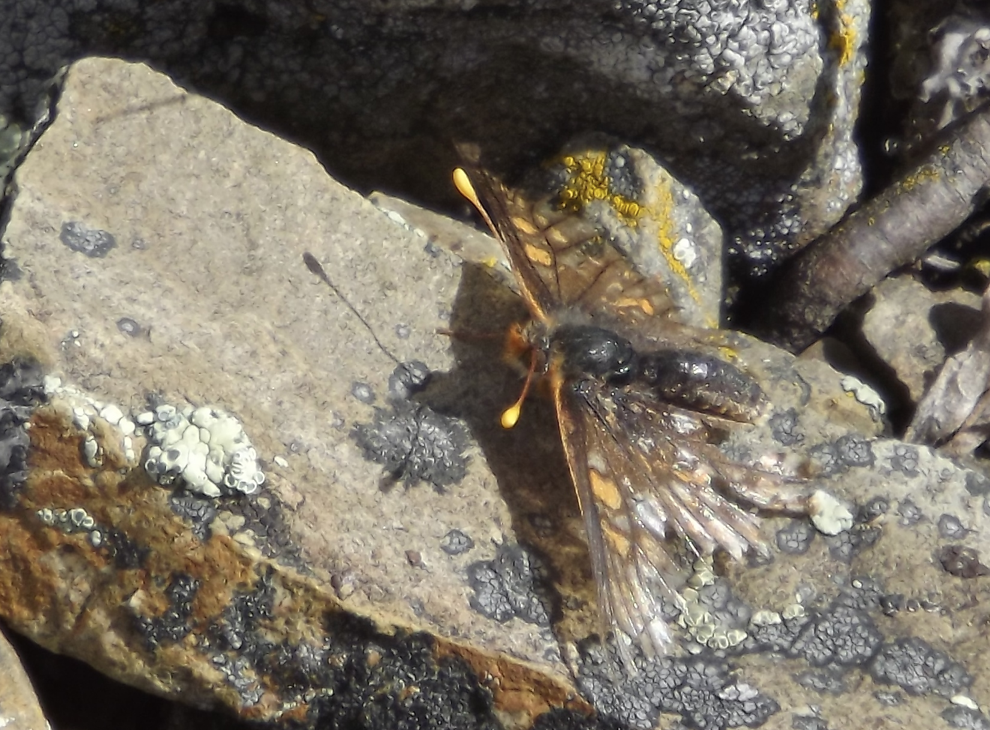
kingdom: Animalia
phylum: Arthropoda
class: Insecta
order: Lepidoptera
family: Nymphalidae
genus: Occidryas
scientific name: Occidryas editha
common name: Edith's Checkerspot
